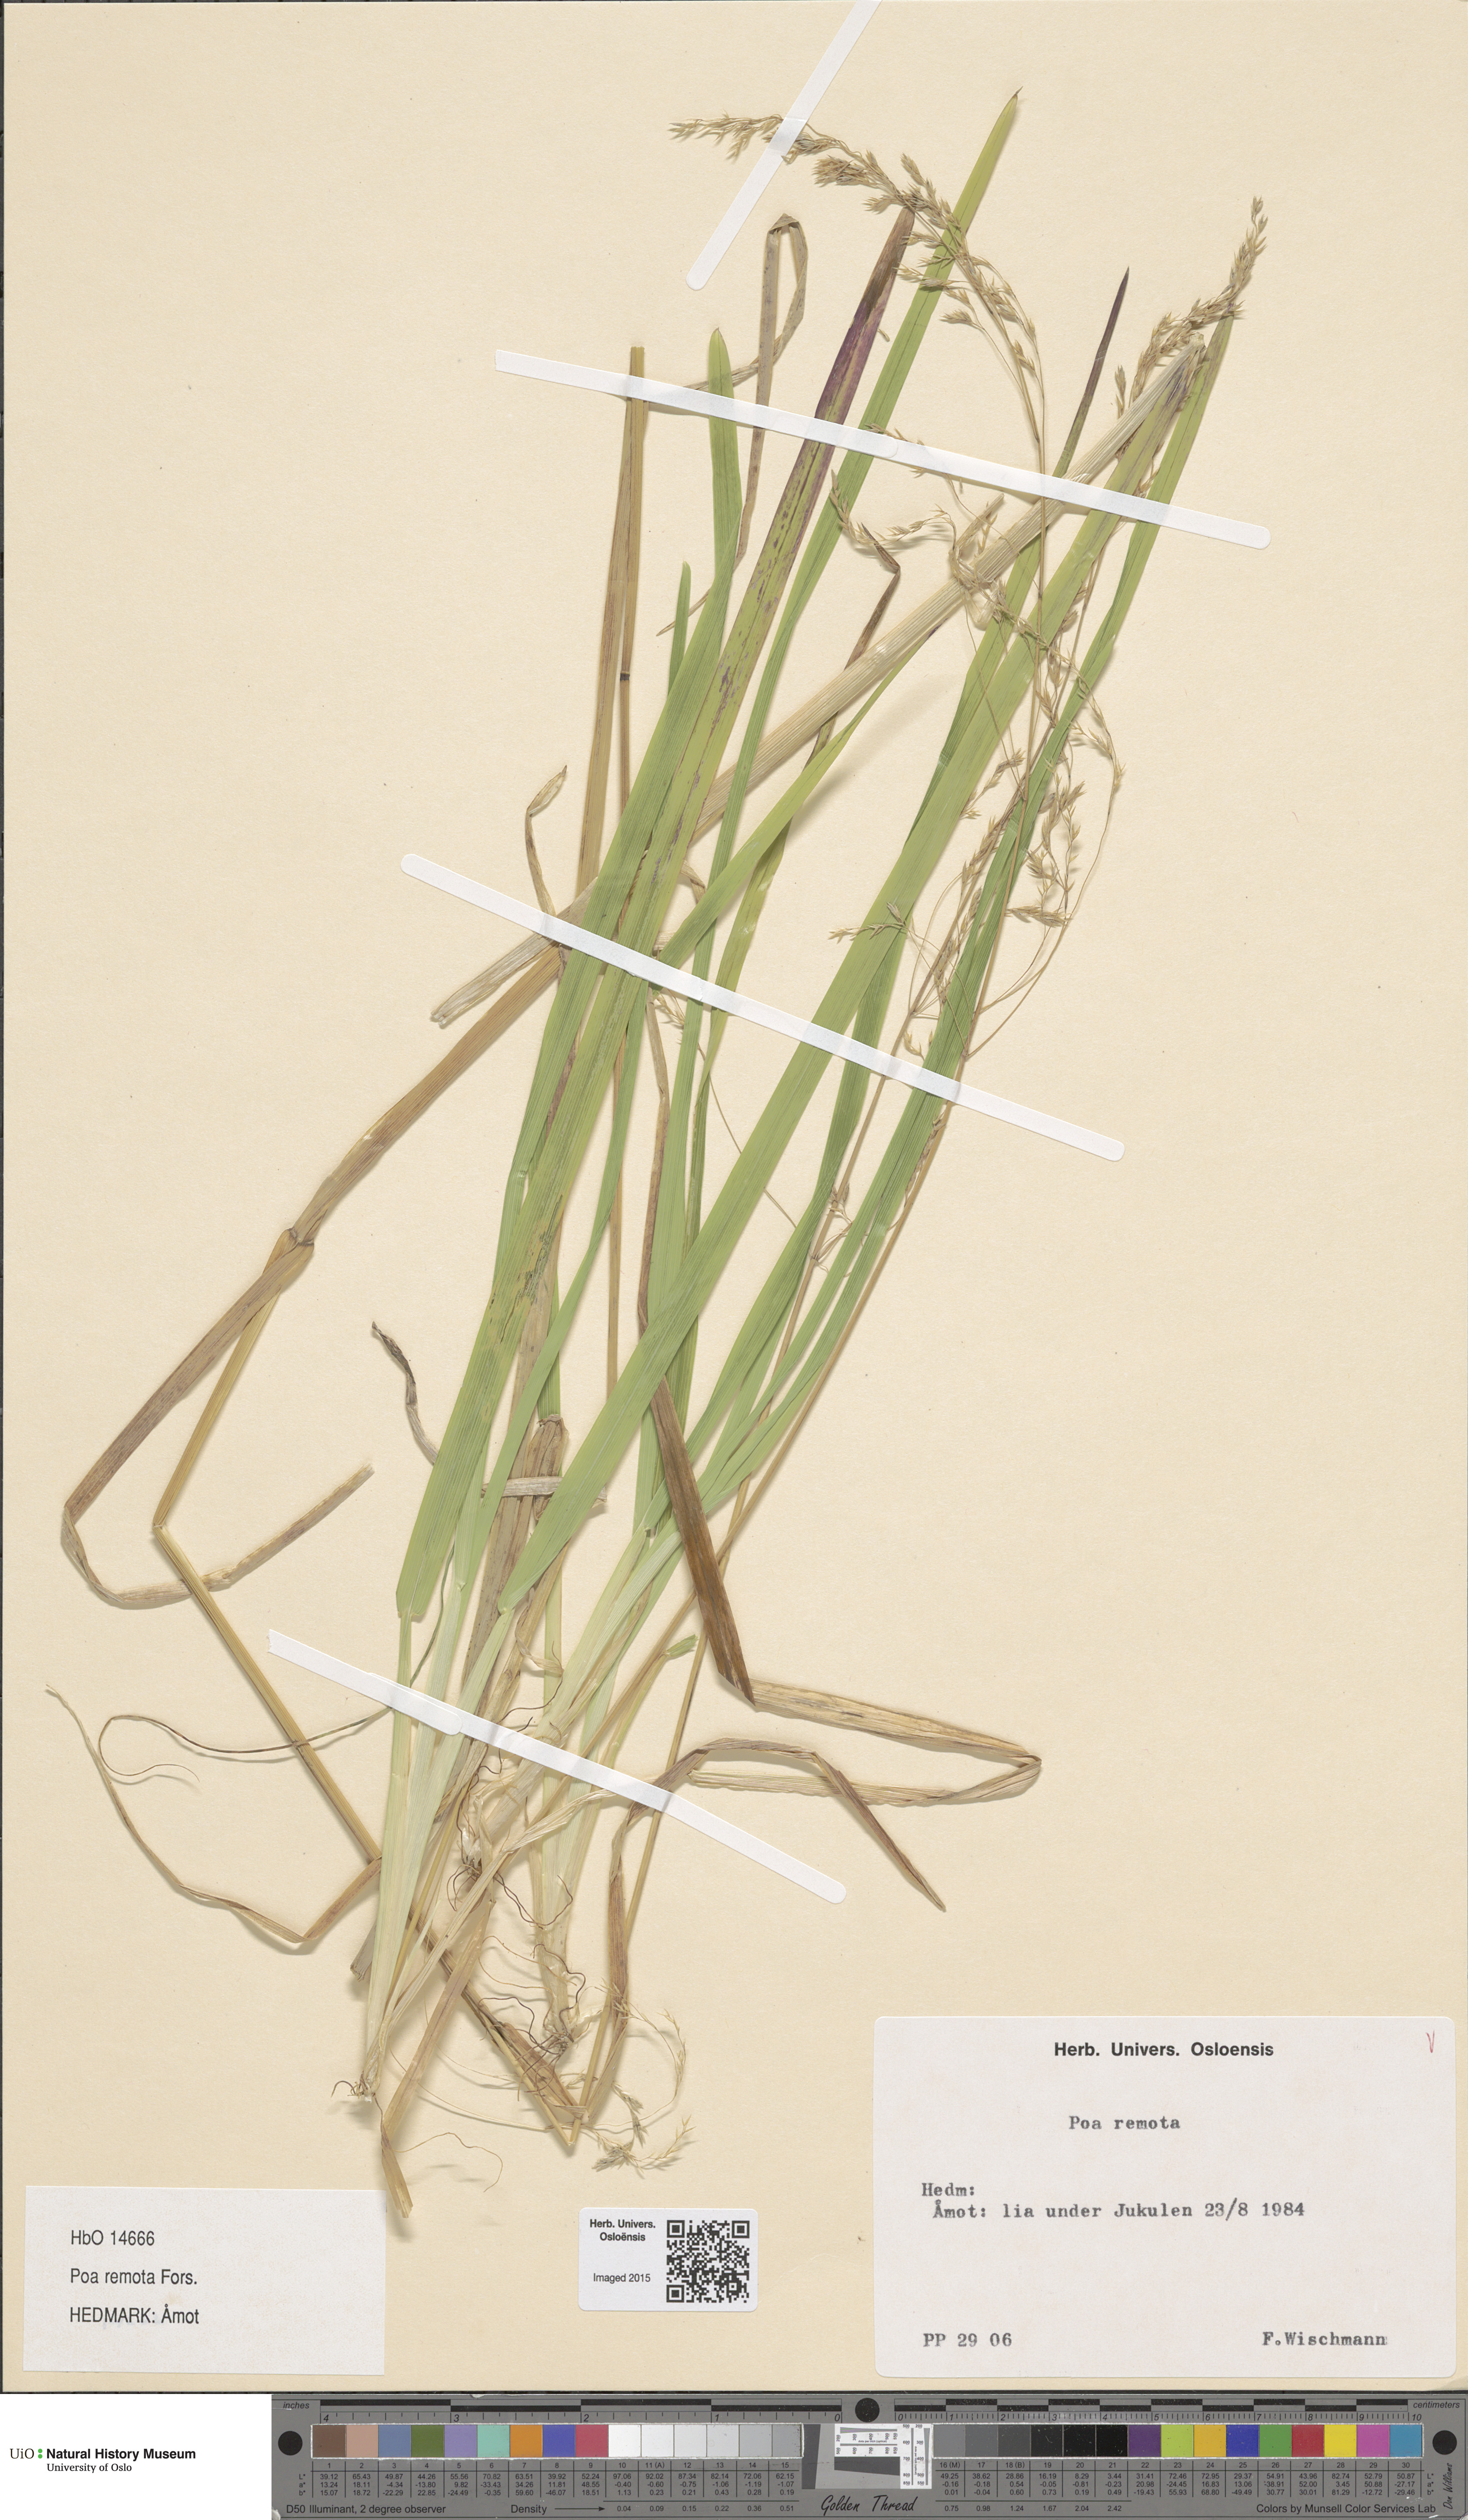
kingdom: Plantae
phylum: Tracheophyta
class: Liliopsida
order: Poales
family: Poaceae
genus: Poa
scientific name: Poa remota
